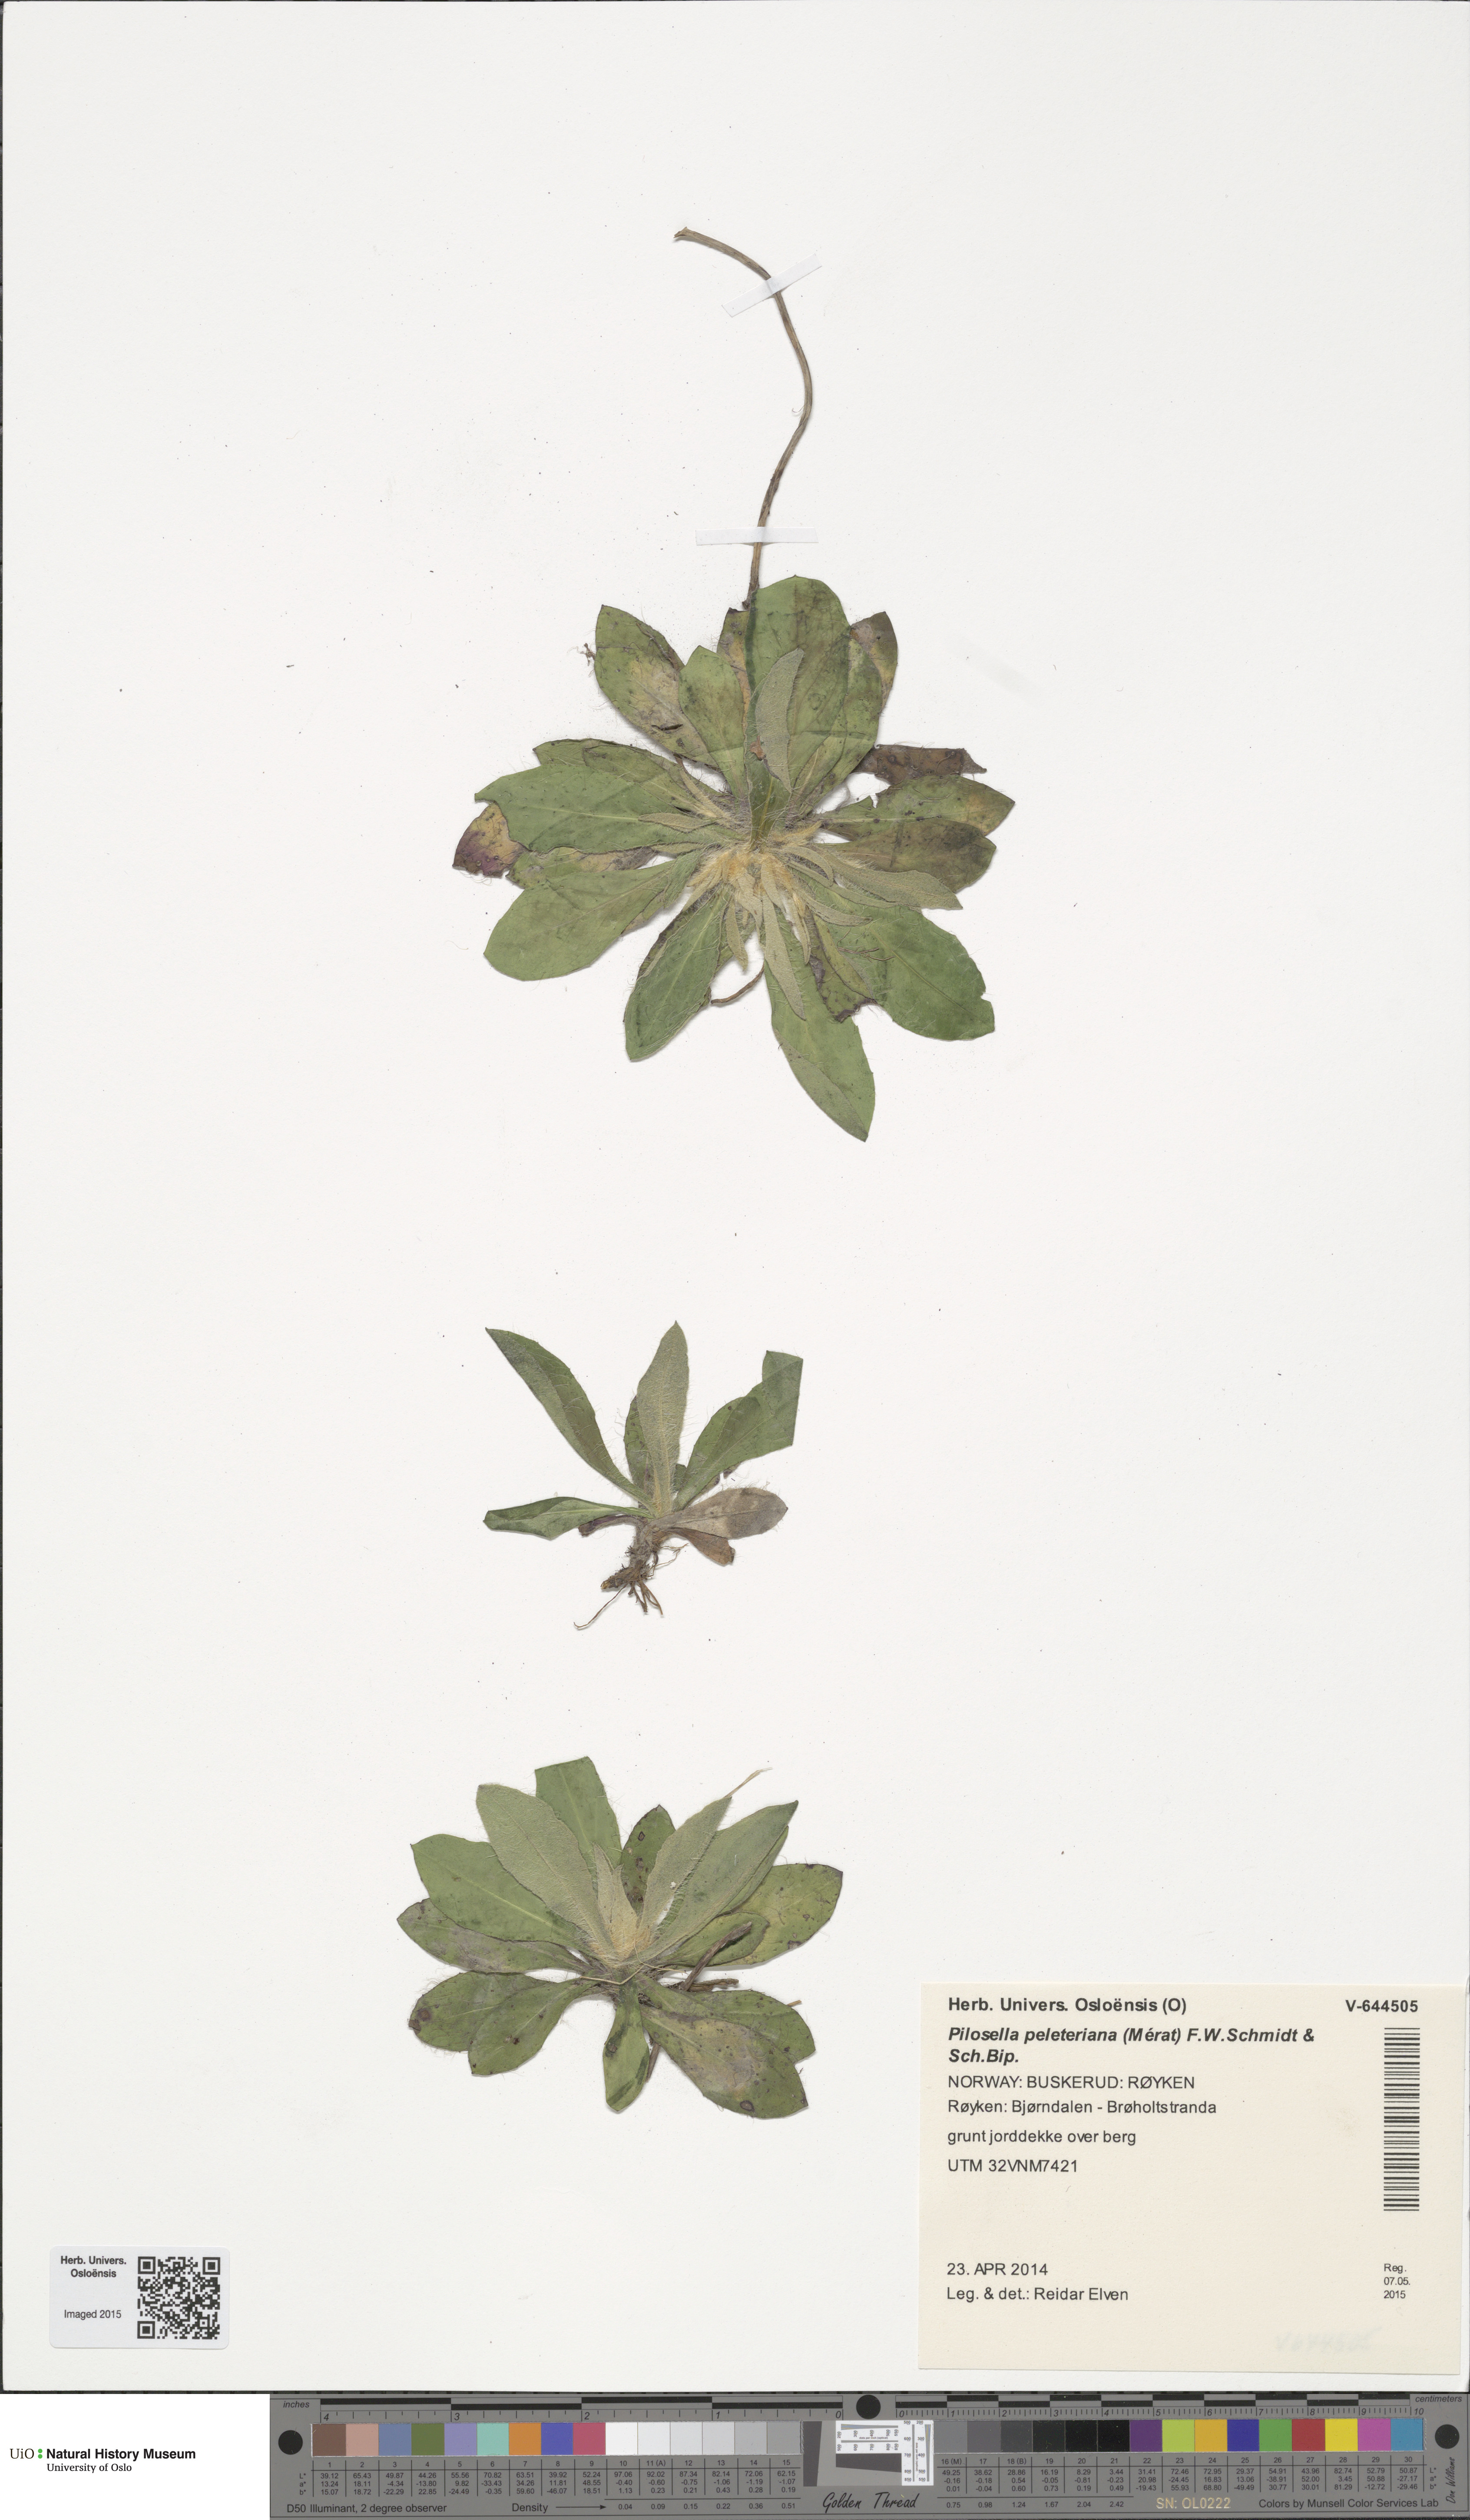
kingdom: Plantae
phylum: Tracheophyta
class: Magnoliopsida
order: Asterales
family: Asteraceae
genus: Pilosella
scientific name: Pilosella peleteriana
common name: Shaggy mouse-ear-hawkweed
